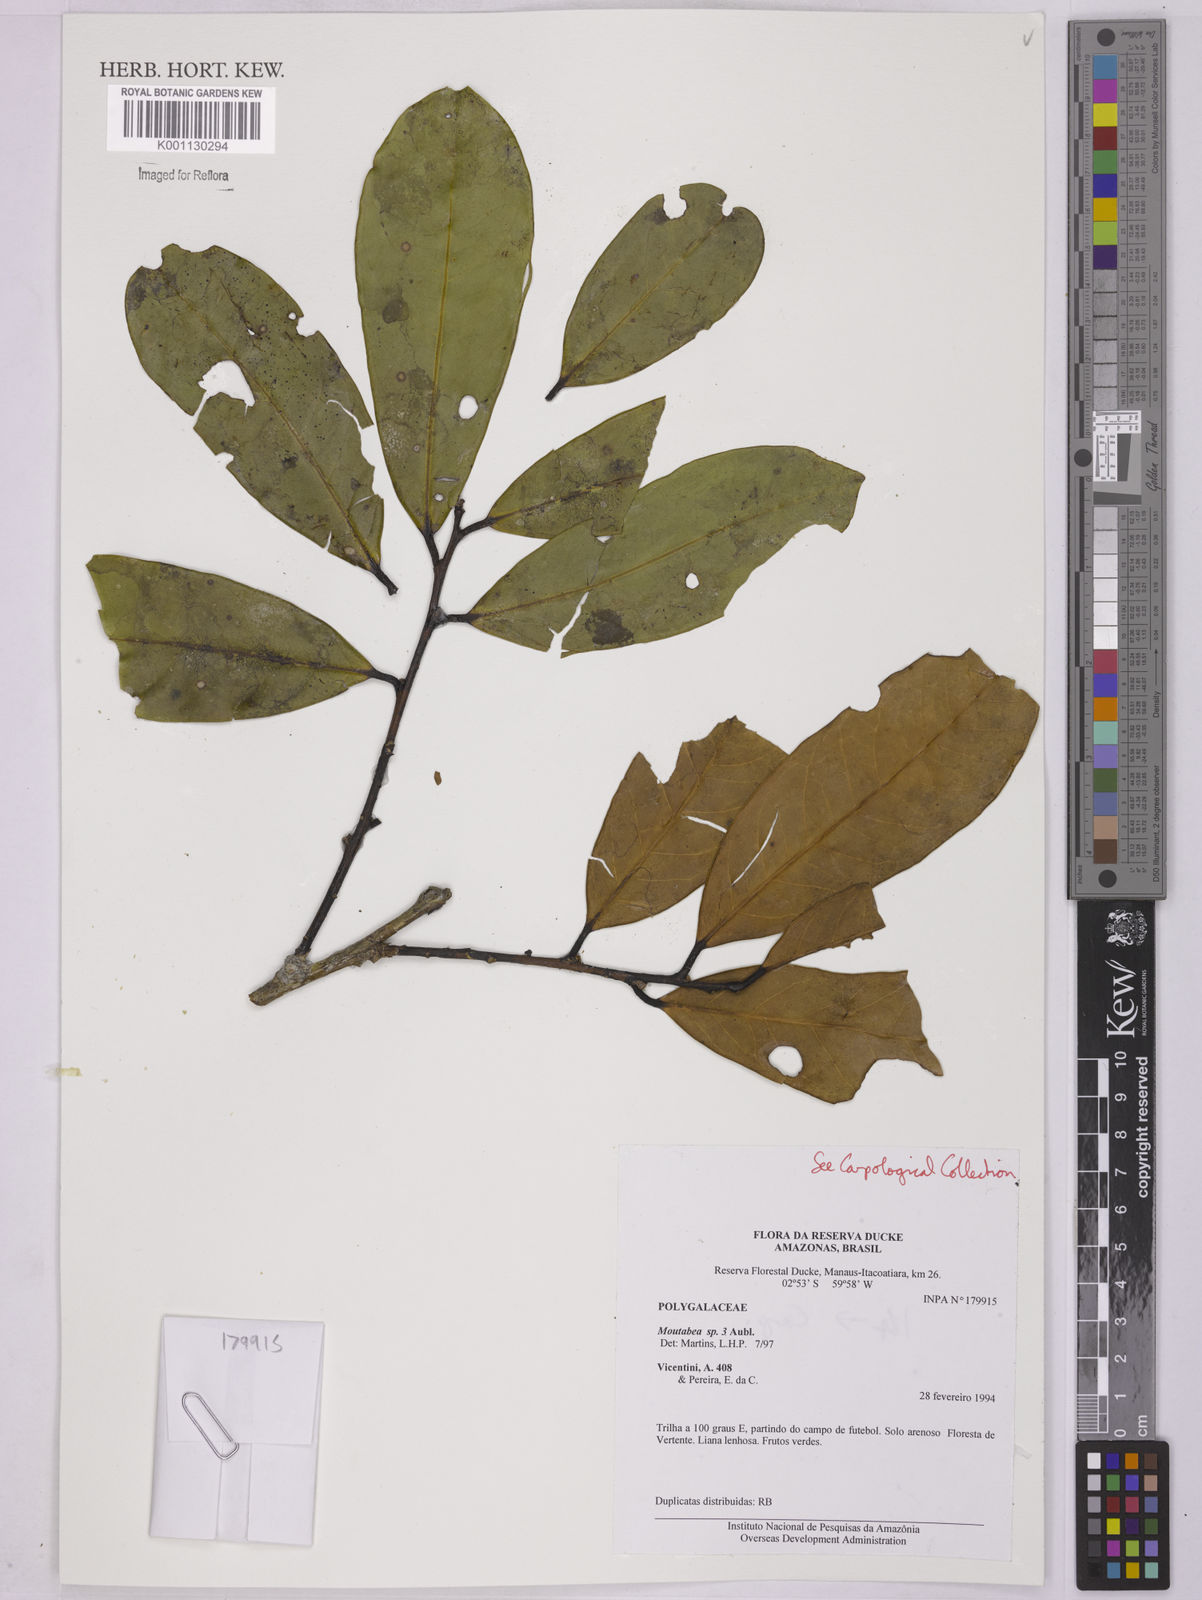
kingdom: Plantae
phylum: Tracheophyta
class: Magnoliopsida
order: Fabales
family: Polygalaceae
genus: Moutabea
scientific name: Moutabea
